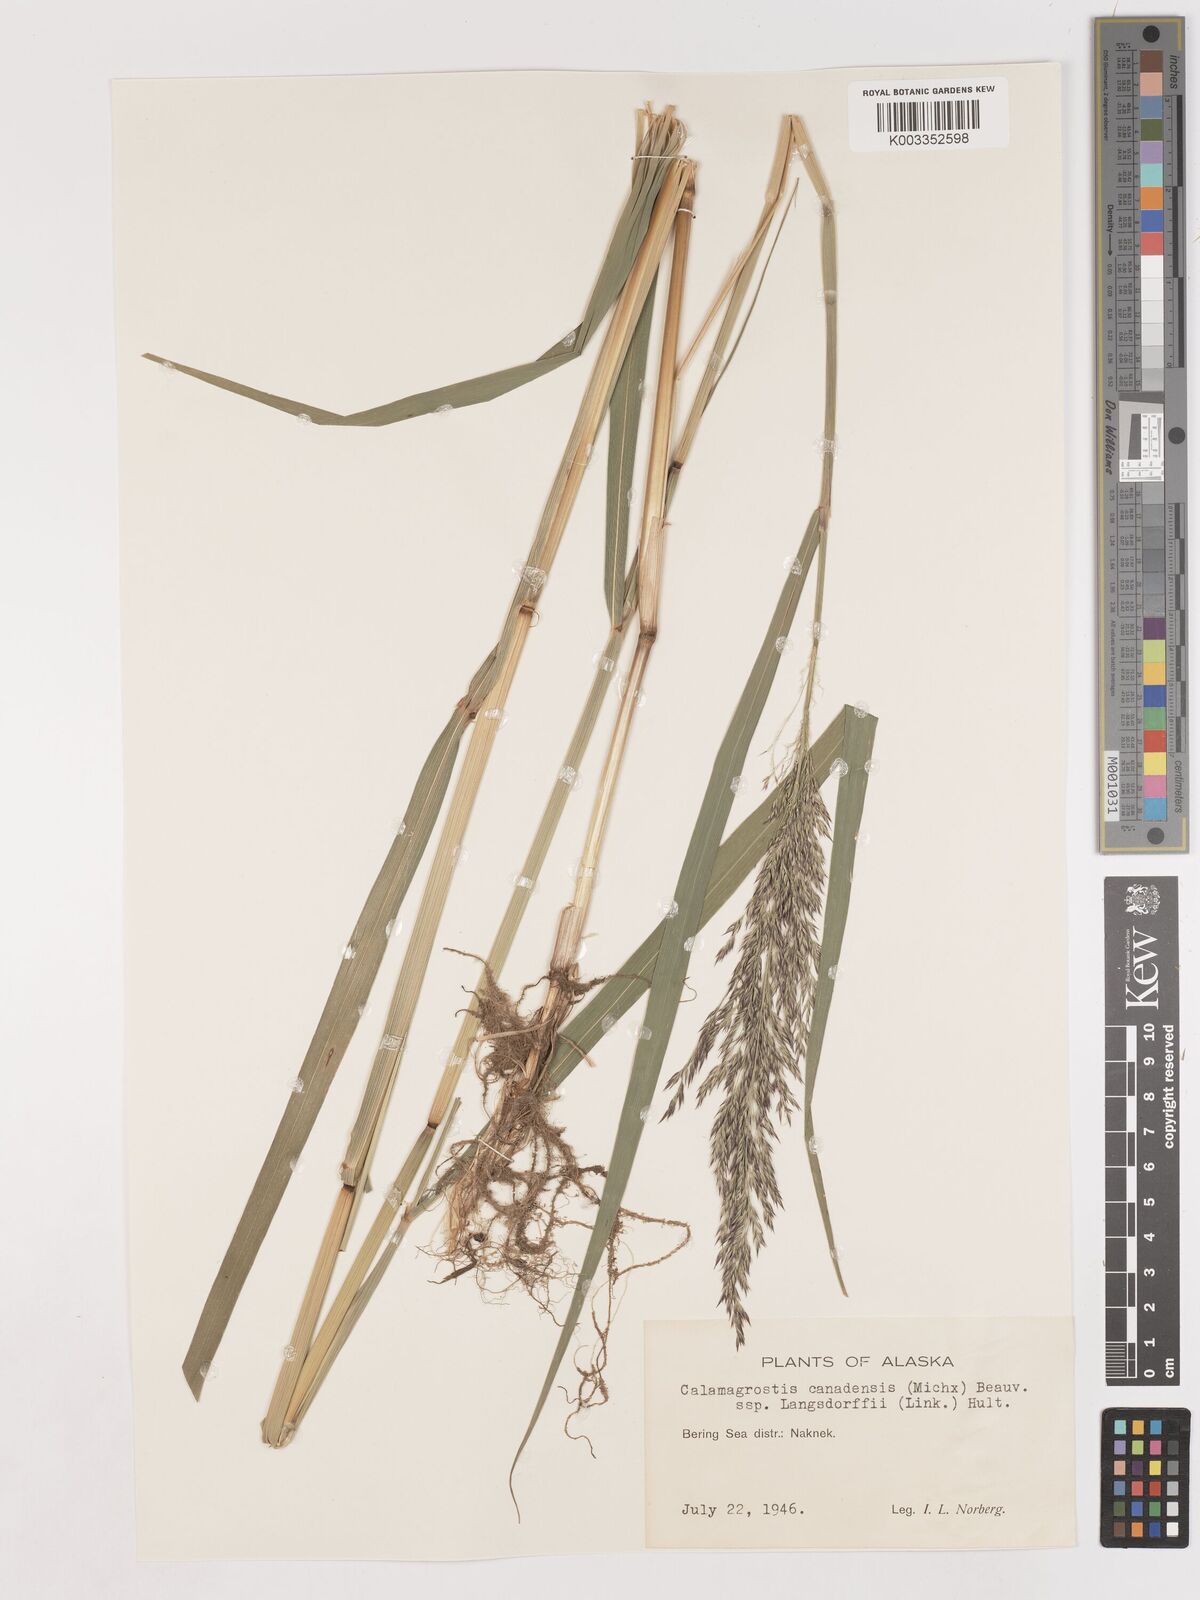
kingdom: Plantae
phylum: Tracheophyta
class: Liliopsida
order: Poales
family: Poaceae
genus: Calamagrostis
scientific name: Calamagrostis canadensis
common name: Canada bluejoint
